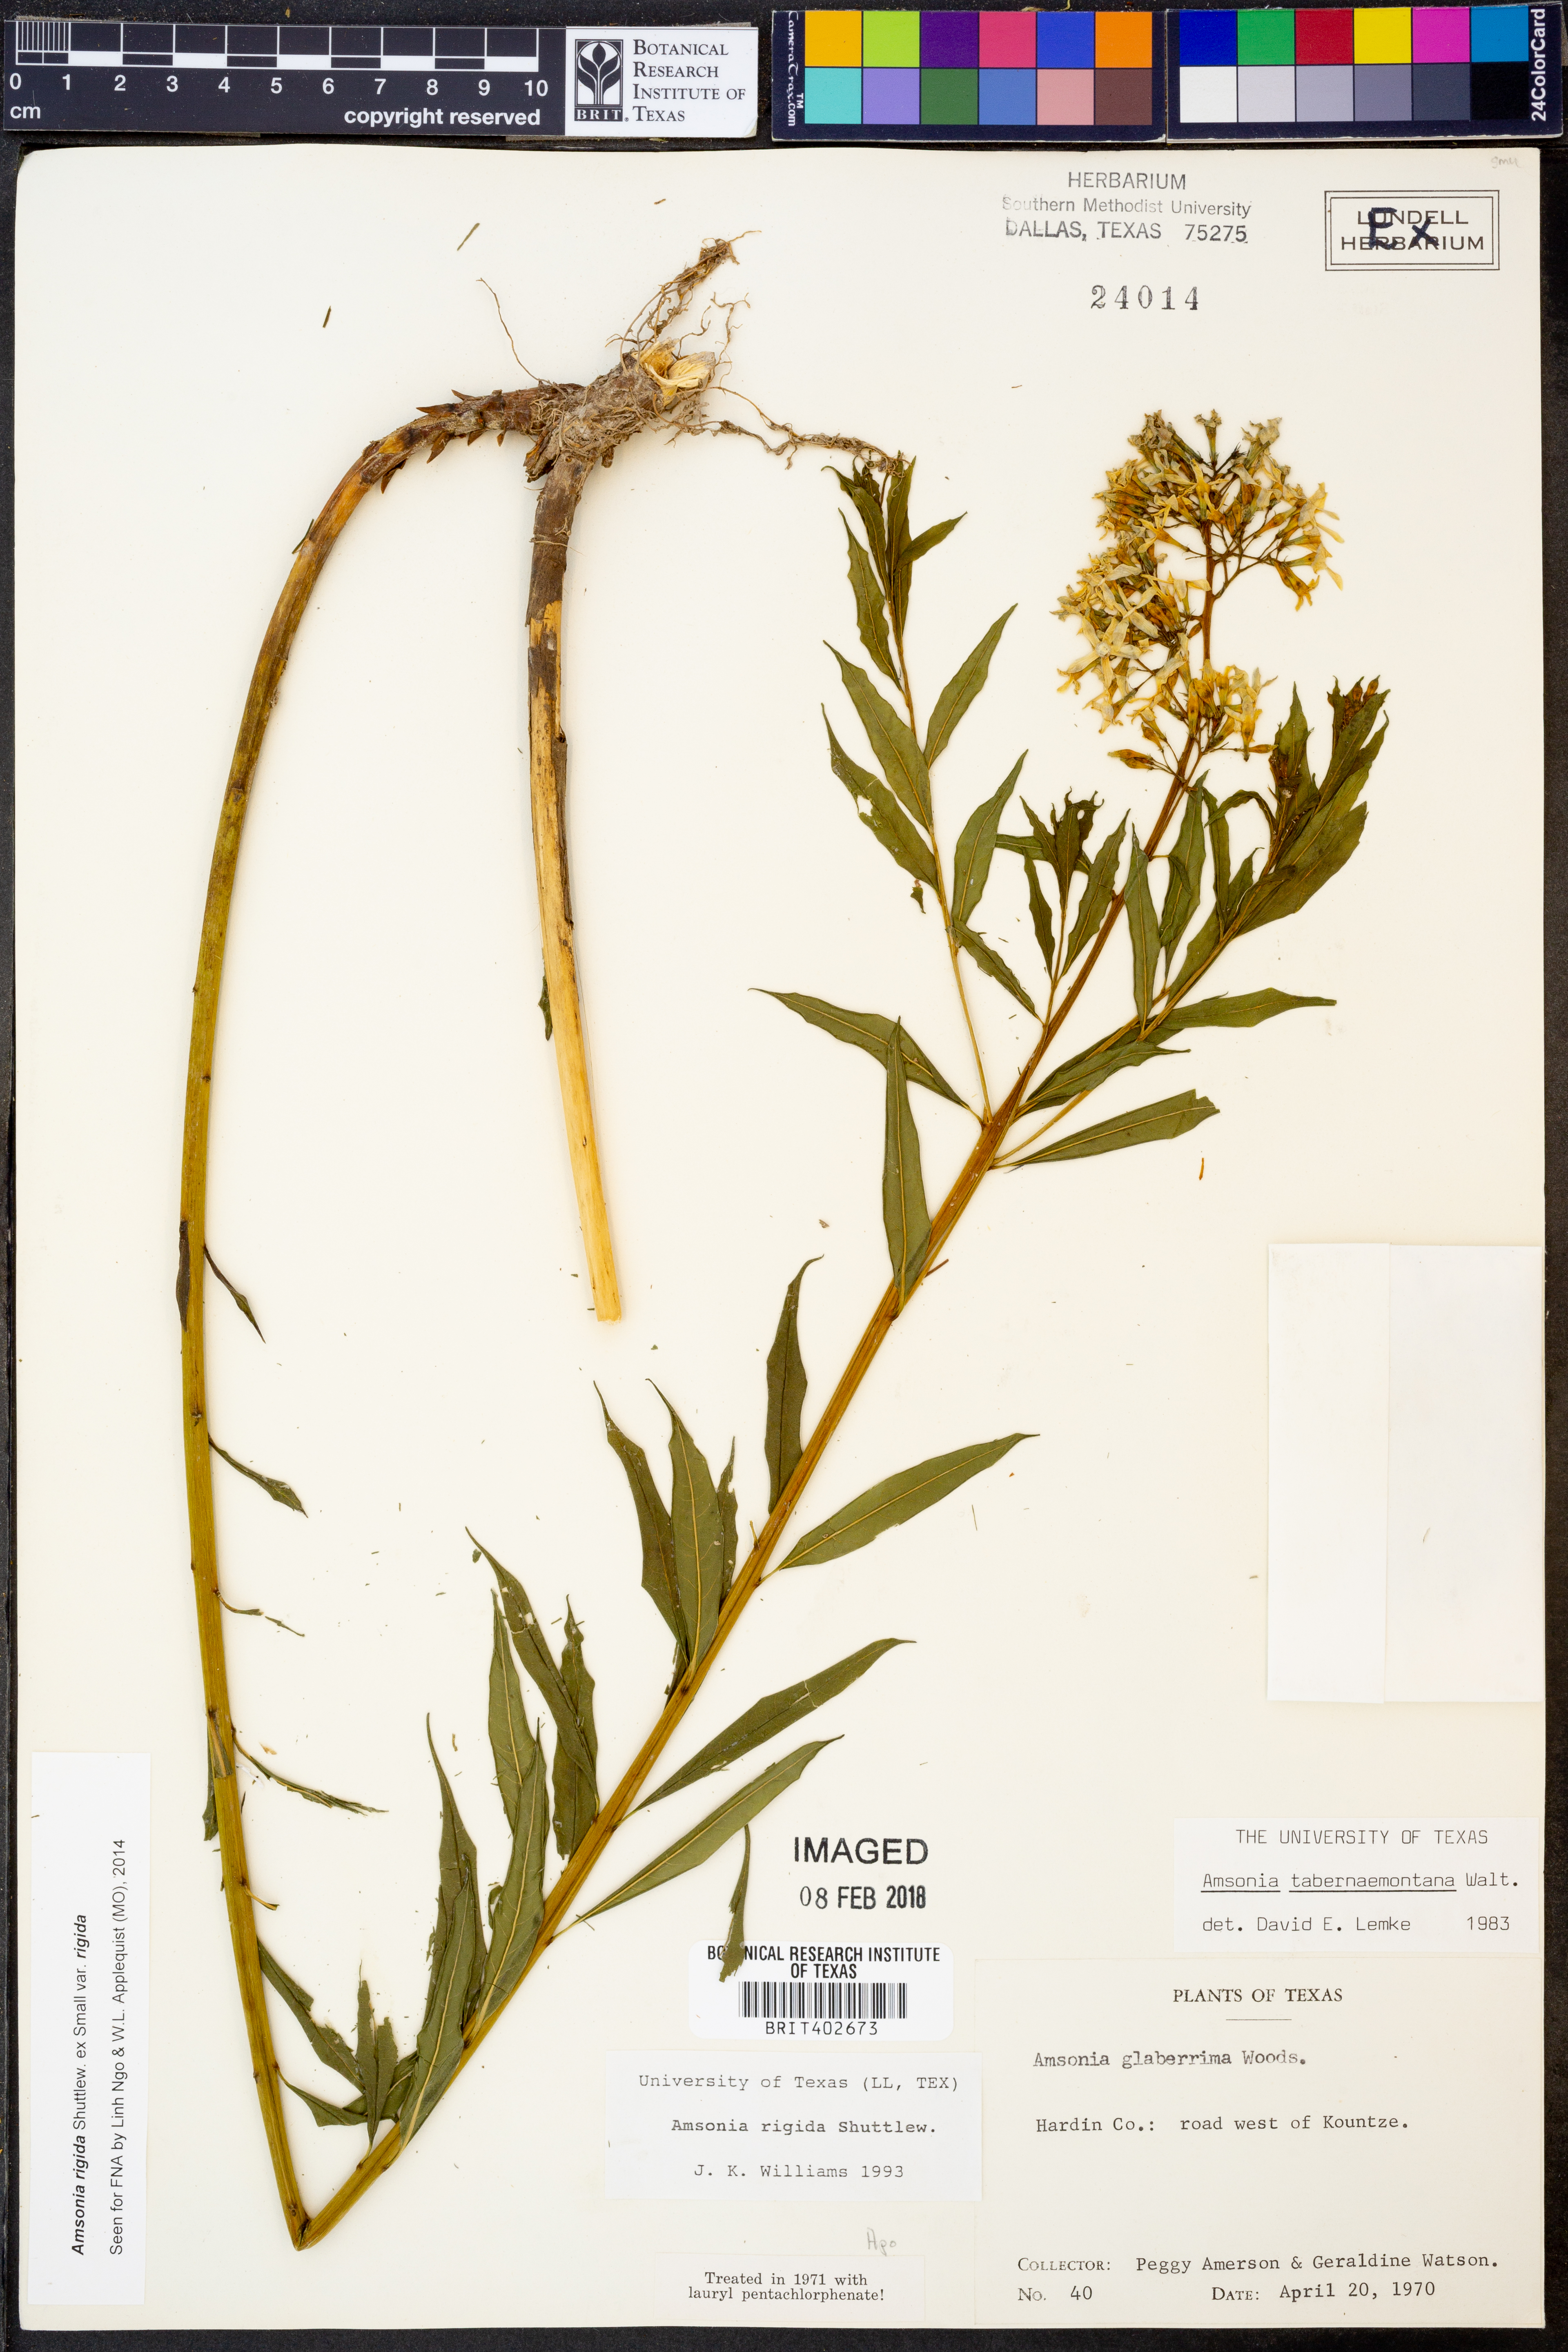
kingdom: Plantae
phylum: Tracheophyta
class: Magnoliopsida
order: Gentianales
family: Apocynaceae
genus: Amsonia
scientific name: Amsonia rigida
